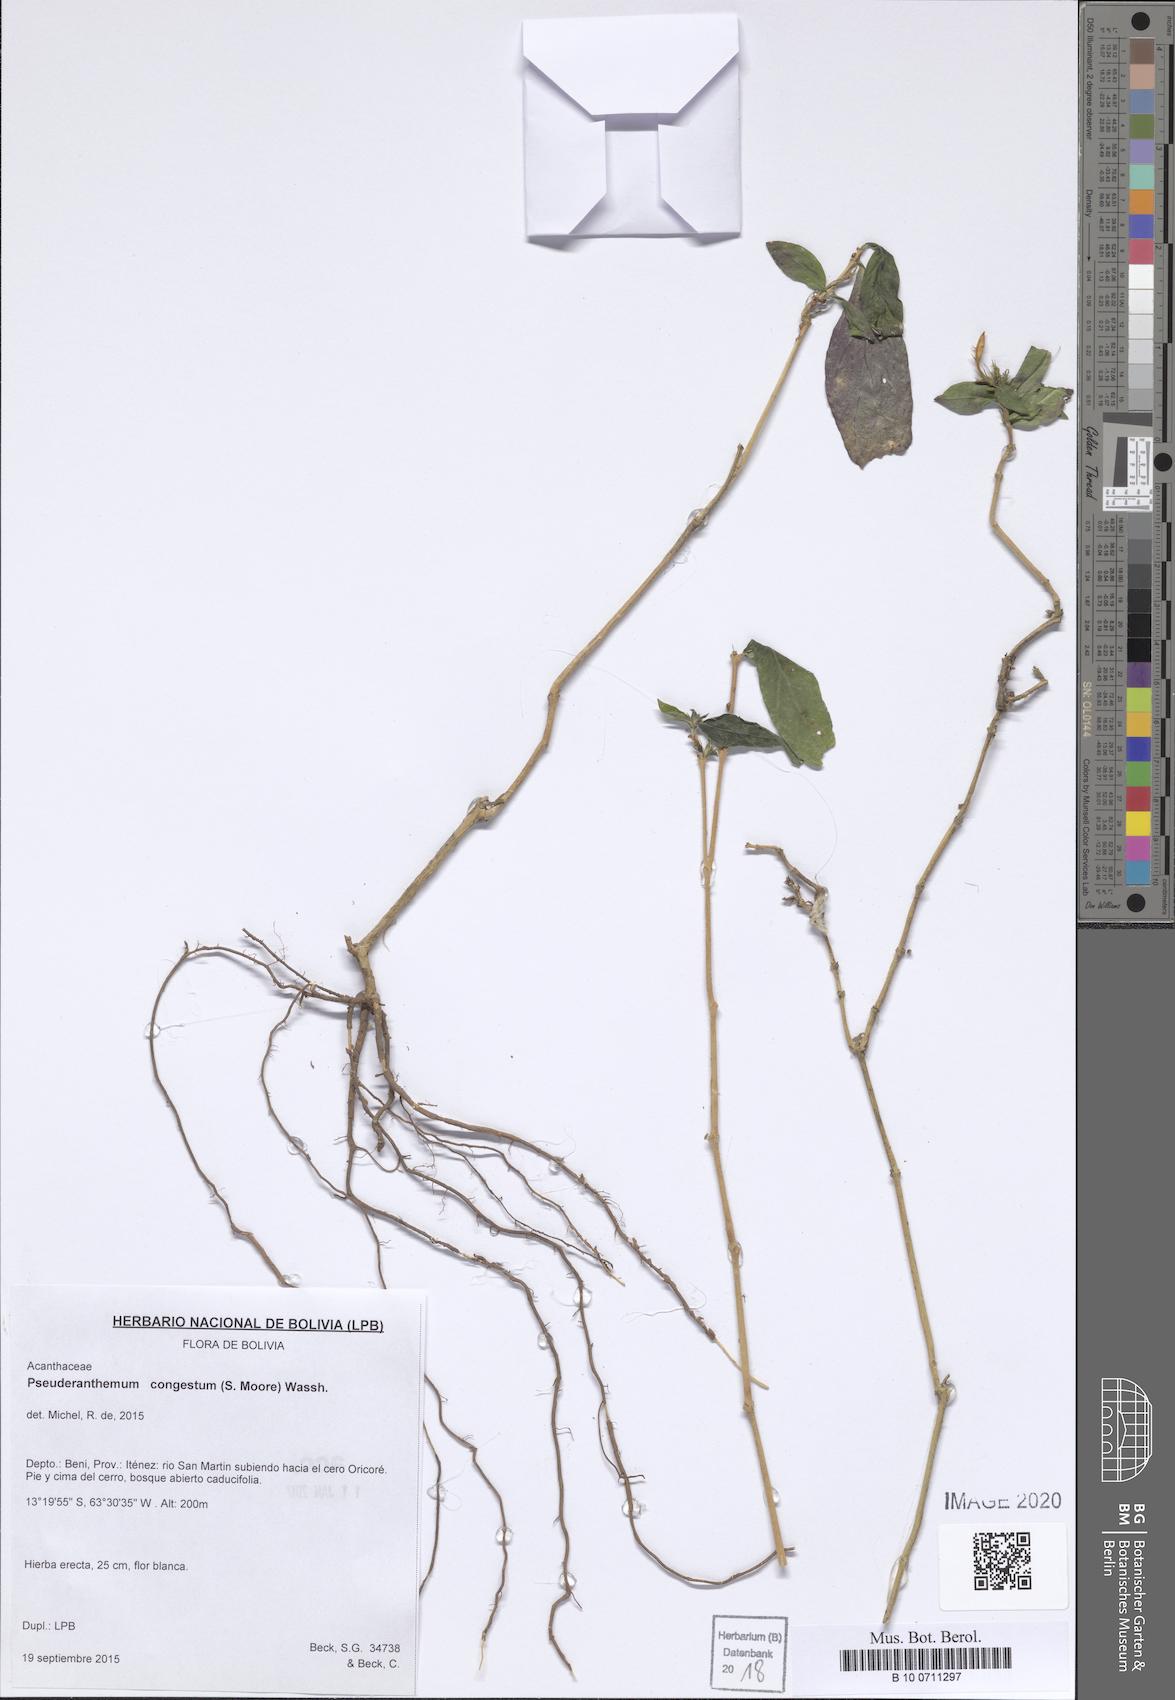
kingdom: Plantae
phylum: Tracheophyta
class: Magnoliopsida
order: Lamiales
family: Acanthaceae
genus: Pseuderanthemum
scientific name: Pseuderanthemum congestum
